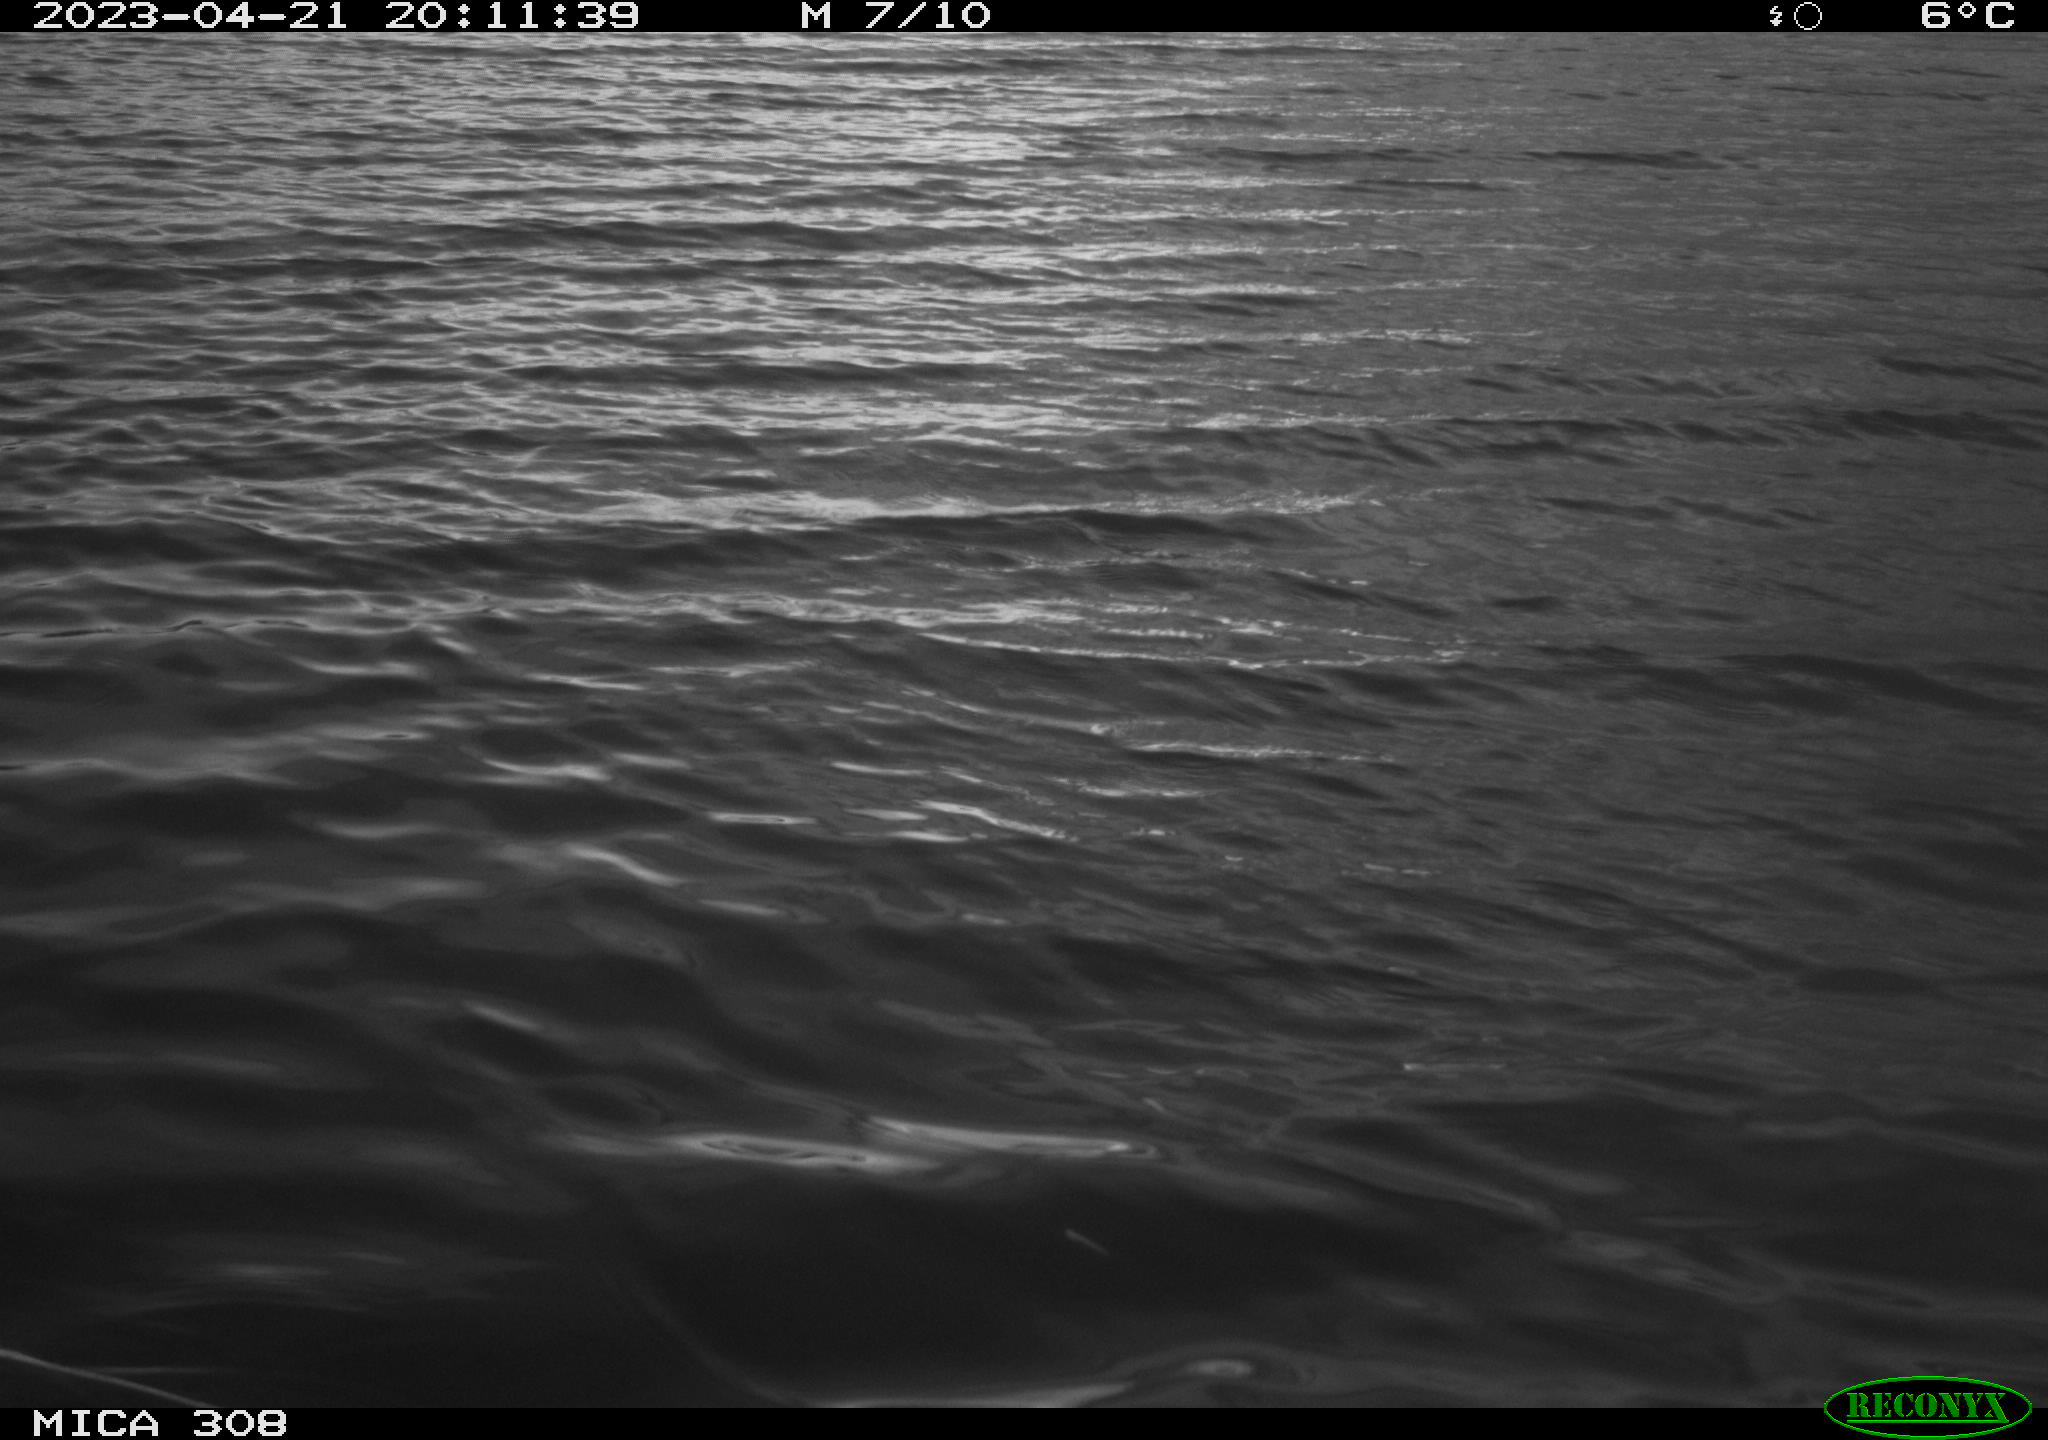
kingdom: Animalia
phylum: Chordata
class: Aves
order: Gruiformes
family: Rallidae
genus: Gallinula
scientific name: Gallinula chloropus
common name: Common moorhen
